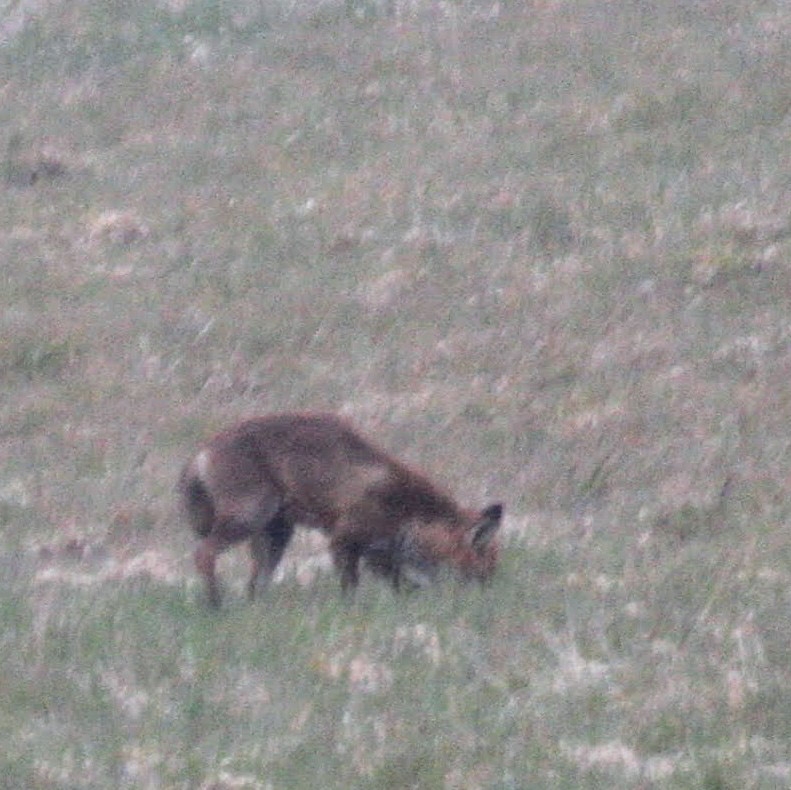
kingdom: Animalia
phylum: Chordata
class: Mammalia
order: Carnivora
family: Canidae
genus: Vulpes
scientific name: Vulpes vulpes
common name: Ræv
